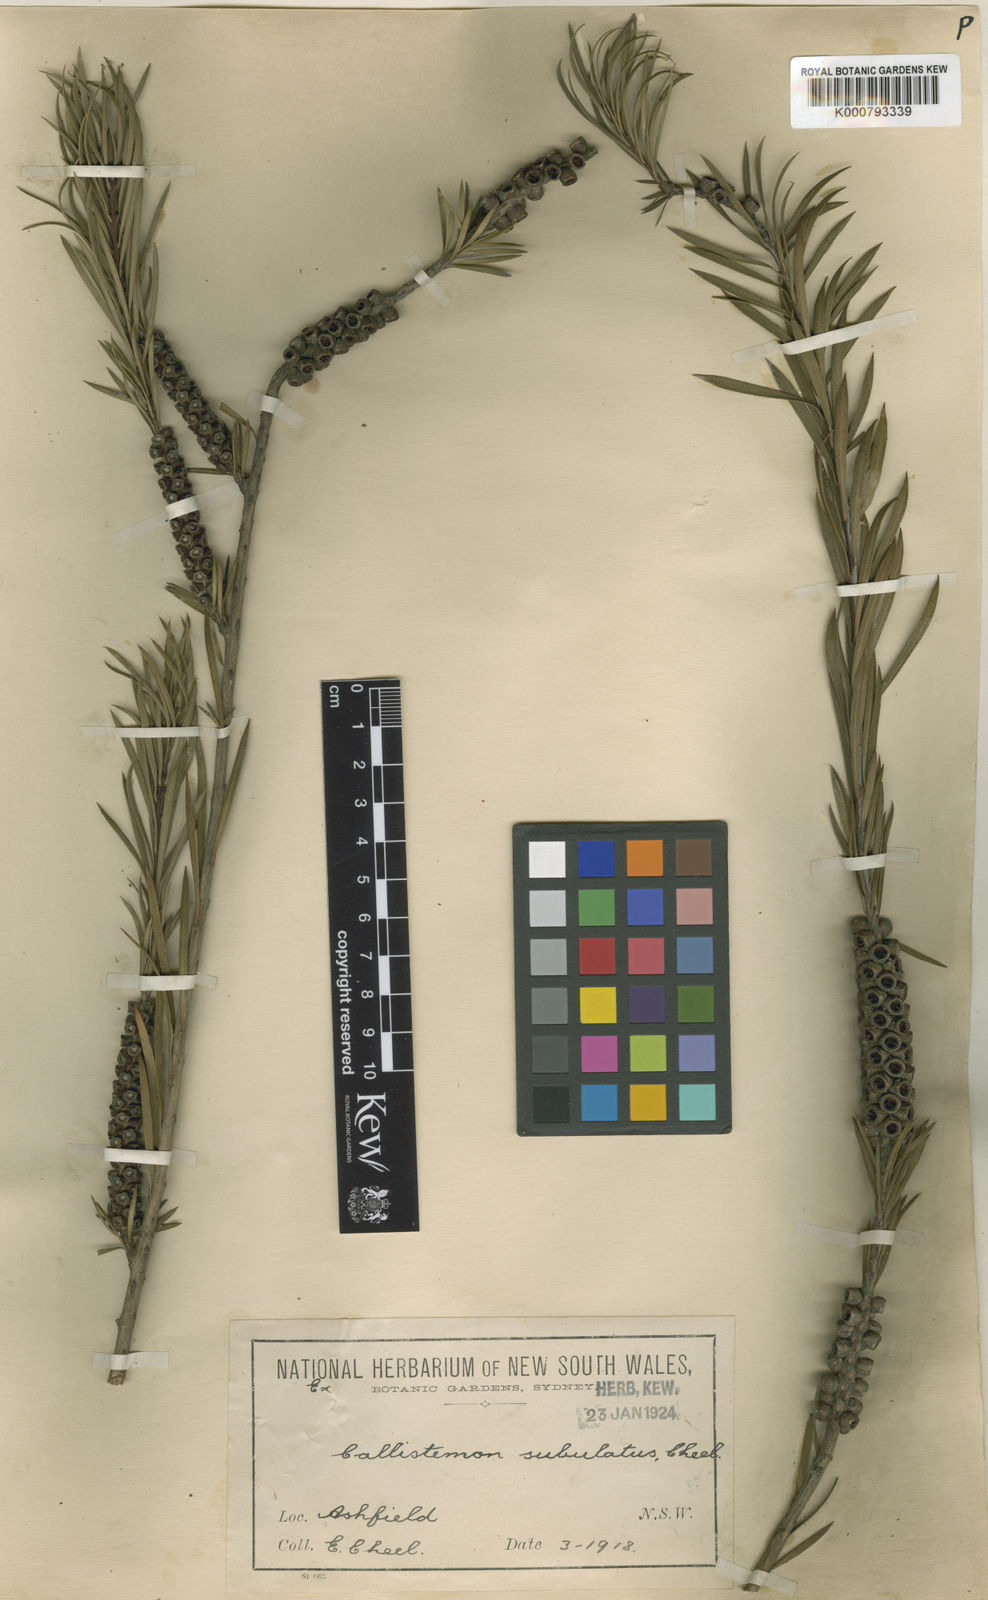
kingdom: Plantae
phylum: Tracheophyta
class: Magnoliopsida
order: Myrtales
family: Myrtaceae
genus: Callistemon
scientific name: Callistemon subulatus
